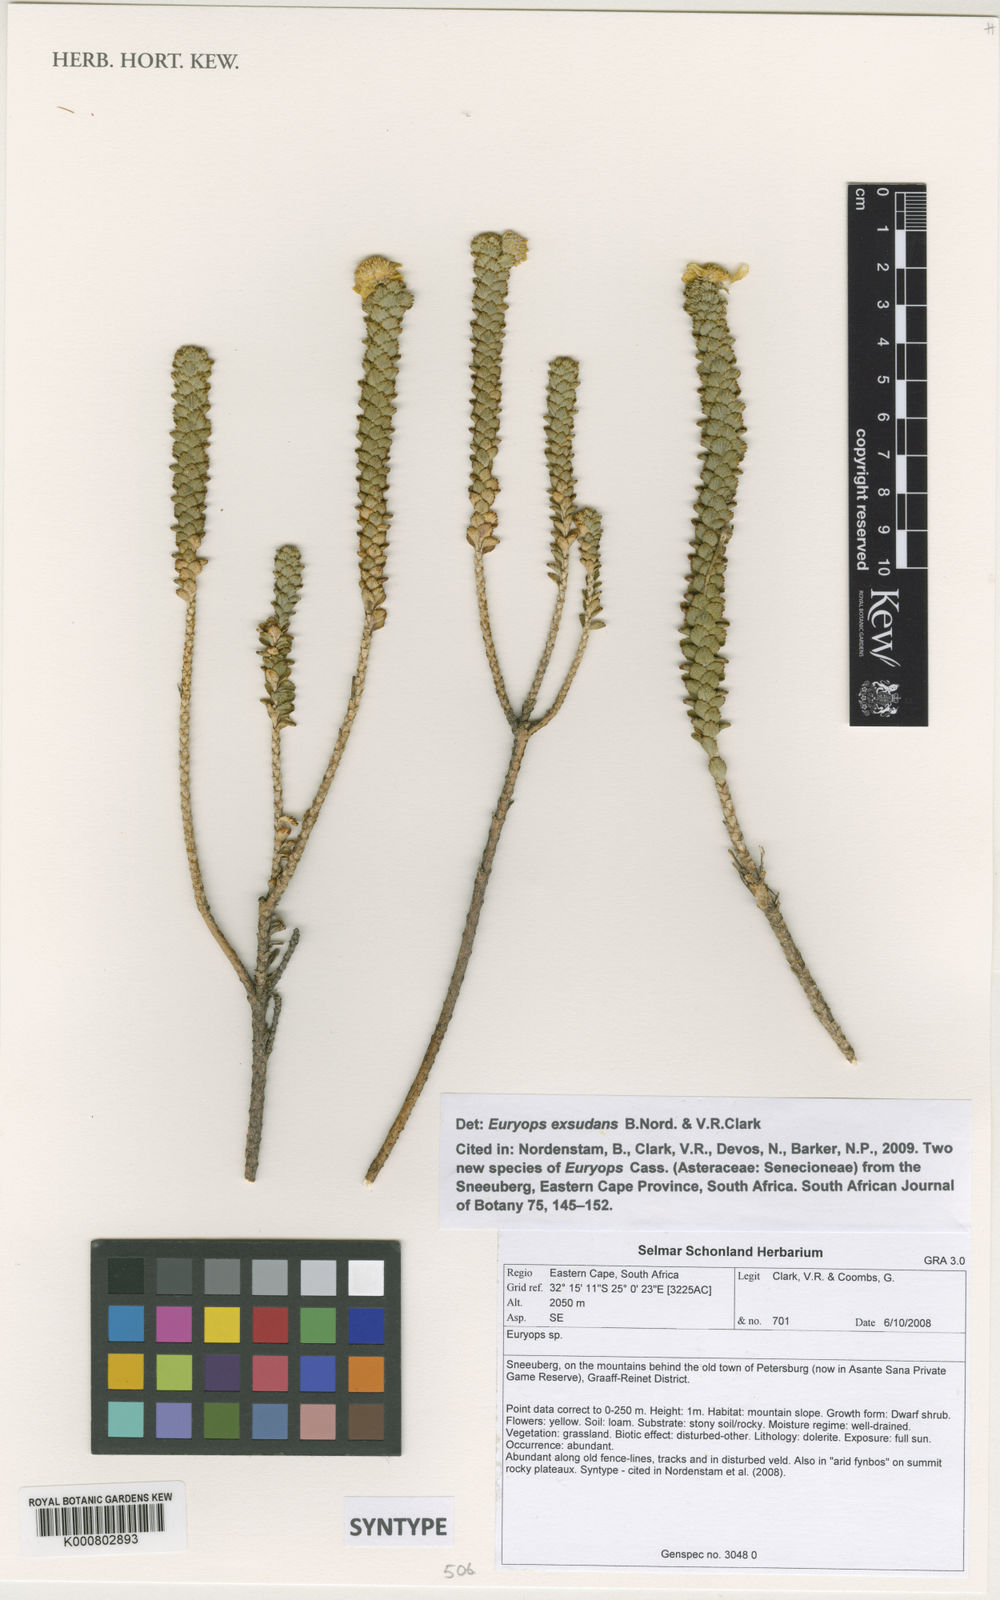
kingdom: Plantae
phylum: Tracheophyta
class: Magnoliopsida
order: Asterales
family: Asteraceae
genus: Euryops
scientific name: Euryops
